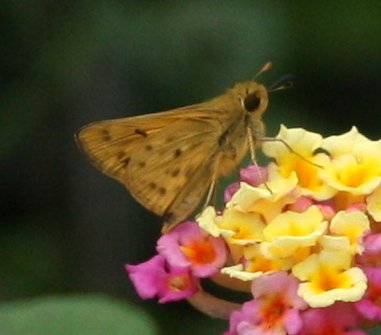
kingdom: Animalia
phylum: Arthropoda
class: Insecta
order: Lepidoptera
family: Hesperiidae
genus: Hylephila
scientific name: Hylephila phyleus
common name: Fiery Skipper
